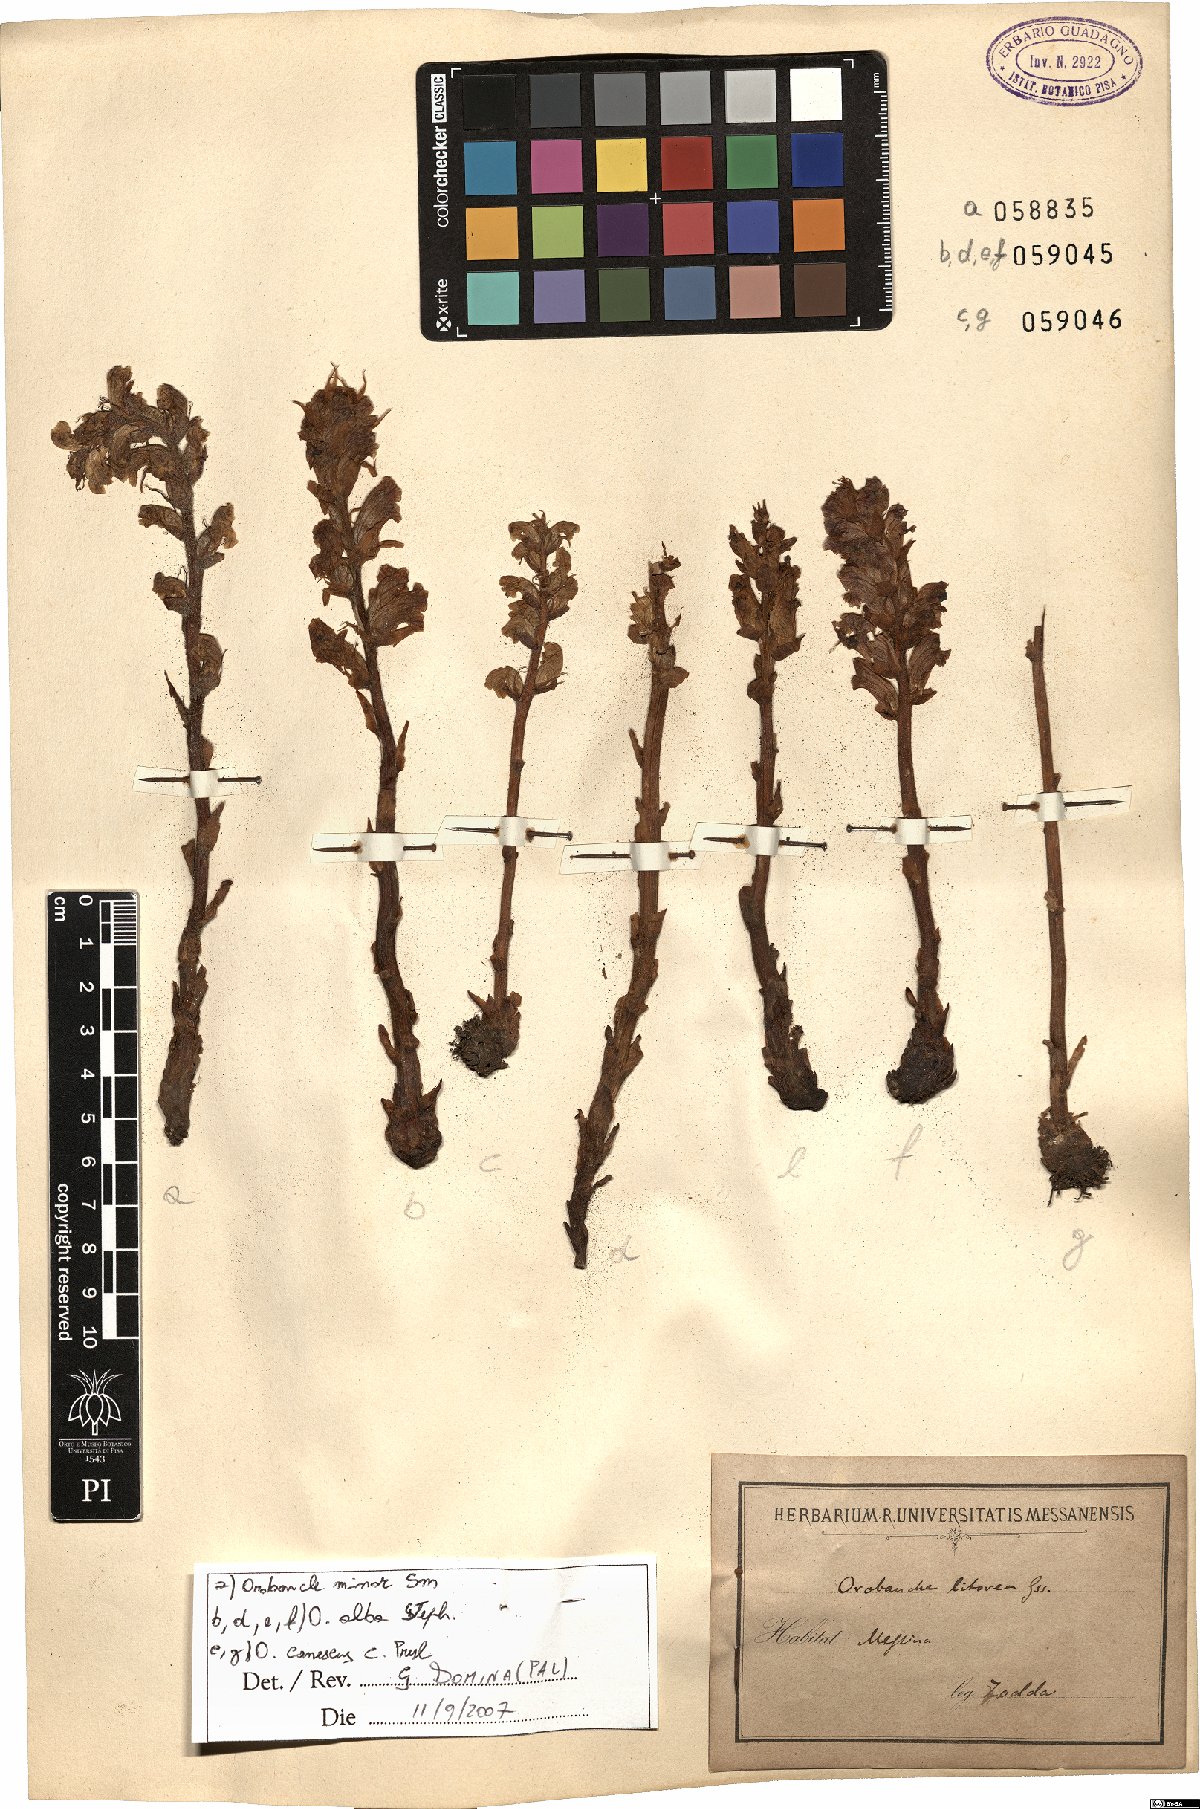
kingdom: Plantae
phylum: Tracheophyta
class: Magnoliopsida
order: Lamiales
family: Orobanchaceae
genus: Orobanche
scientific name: Orobanche minor
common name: Common broomrape
